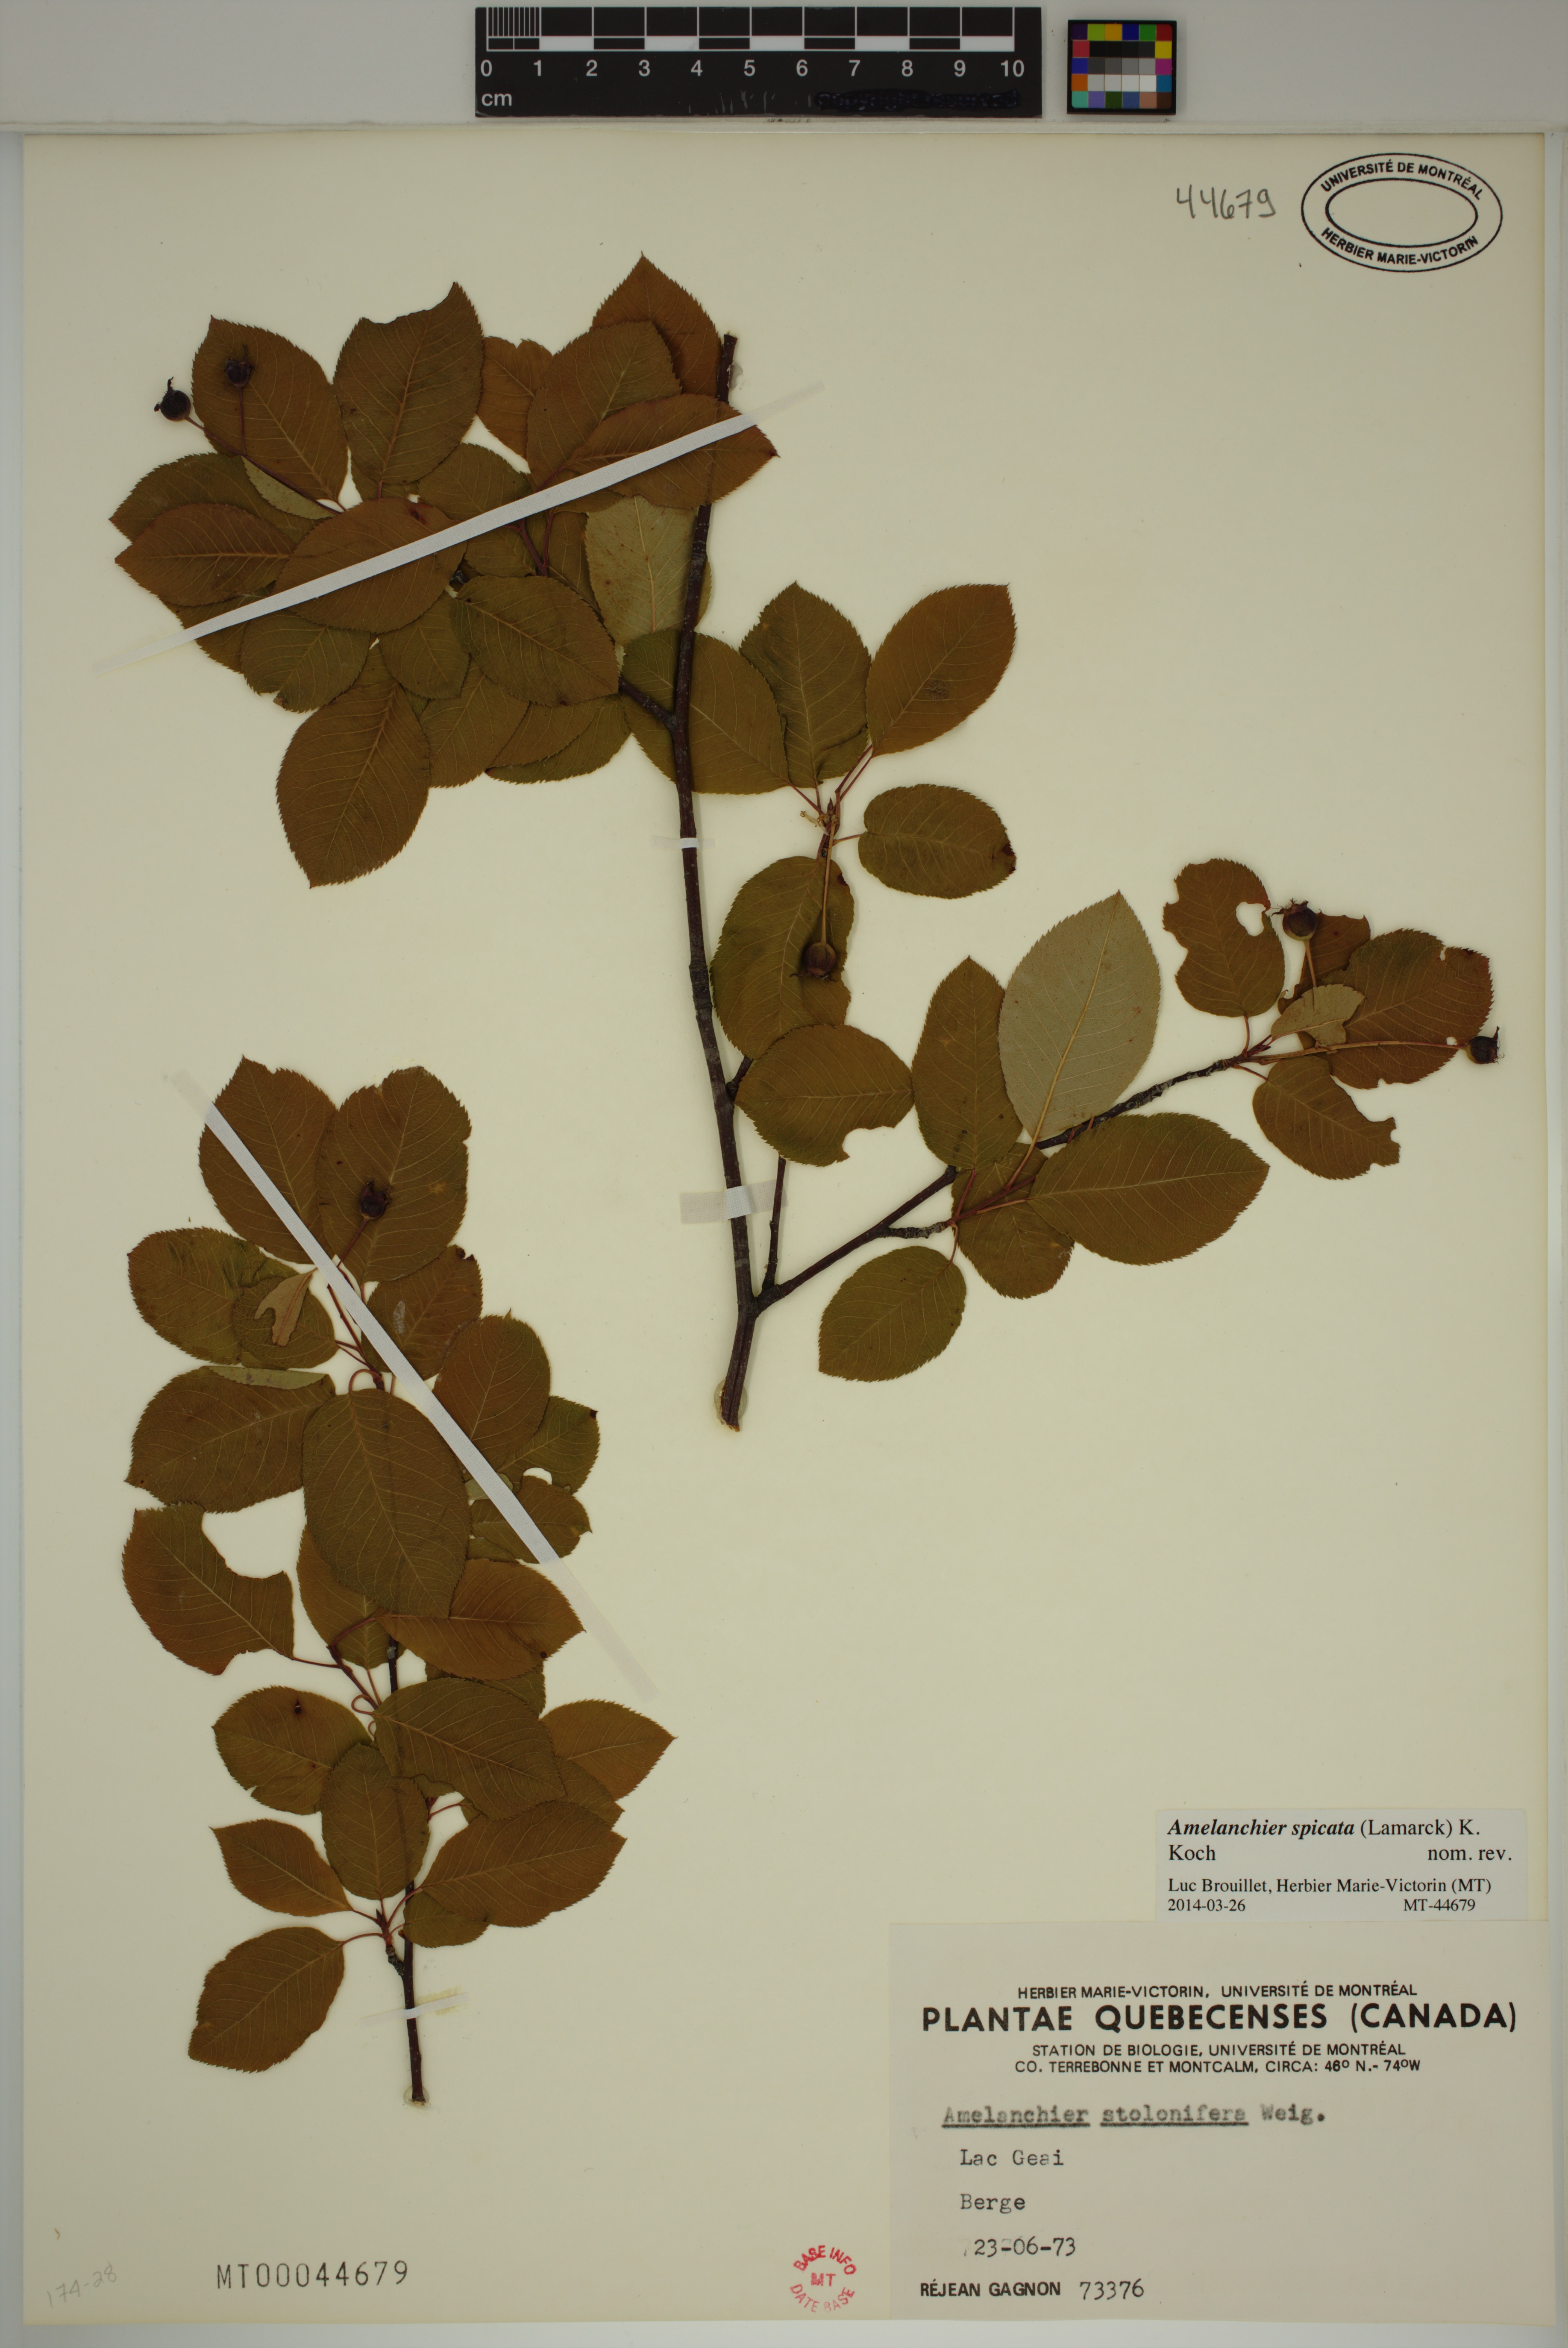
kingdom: Plantae
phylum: Tracheophyta
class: Magnoliopsida
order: Rosales
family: Rosaceae
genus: Amelanchier
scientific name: Amelanchier humilis
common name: Low juneberry
